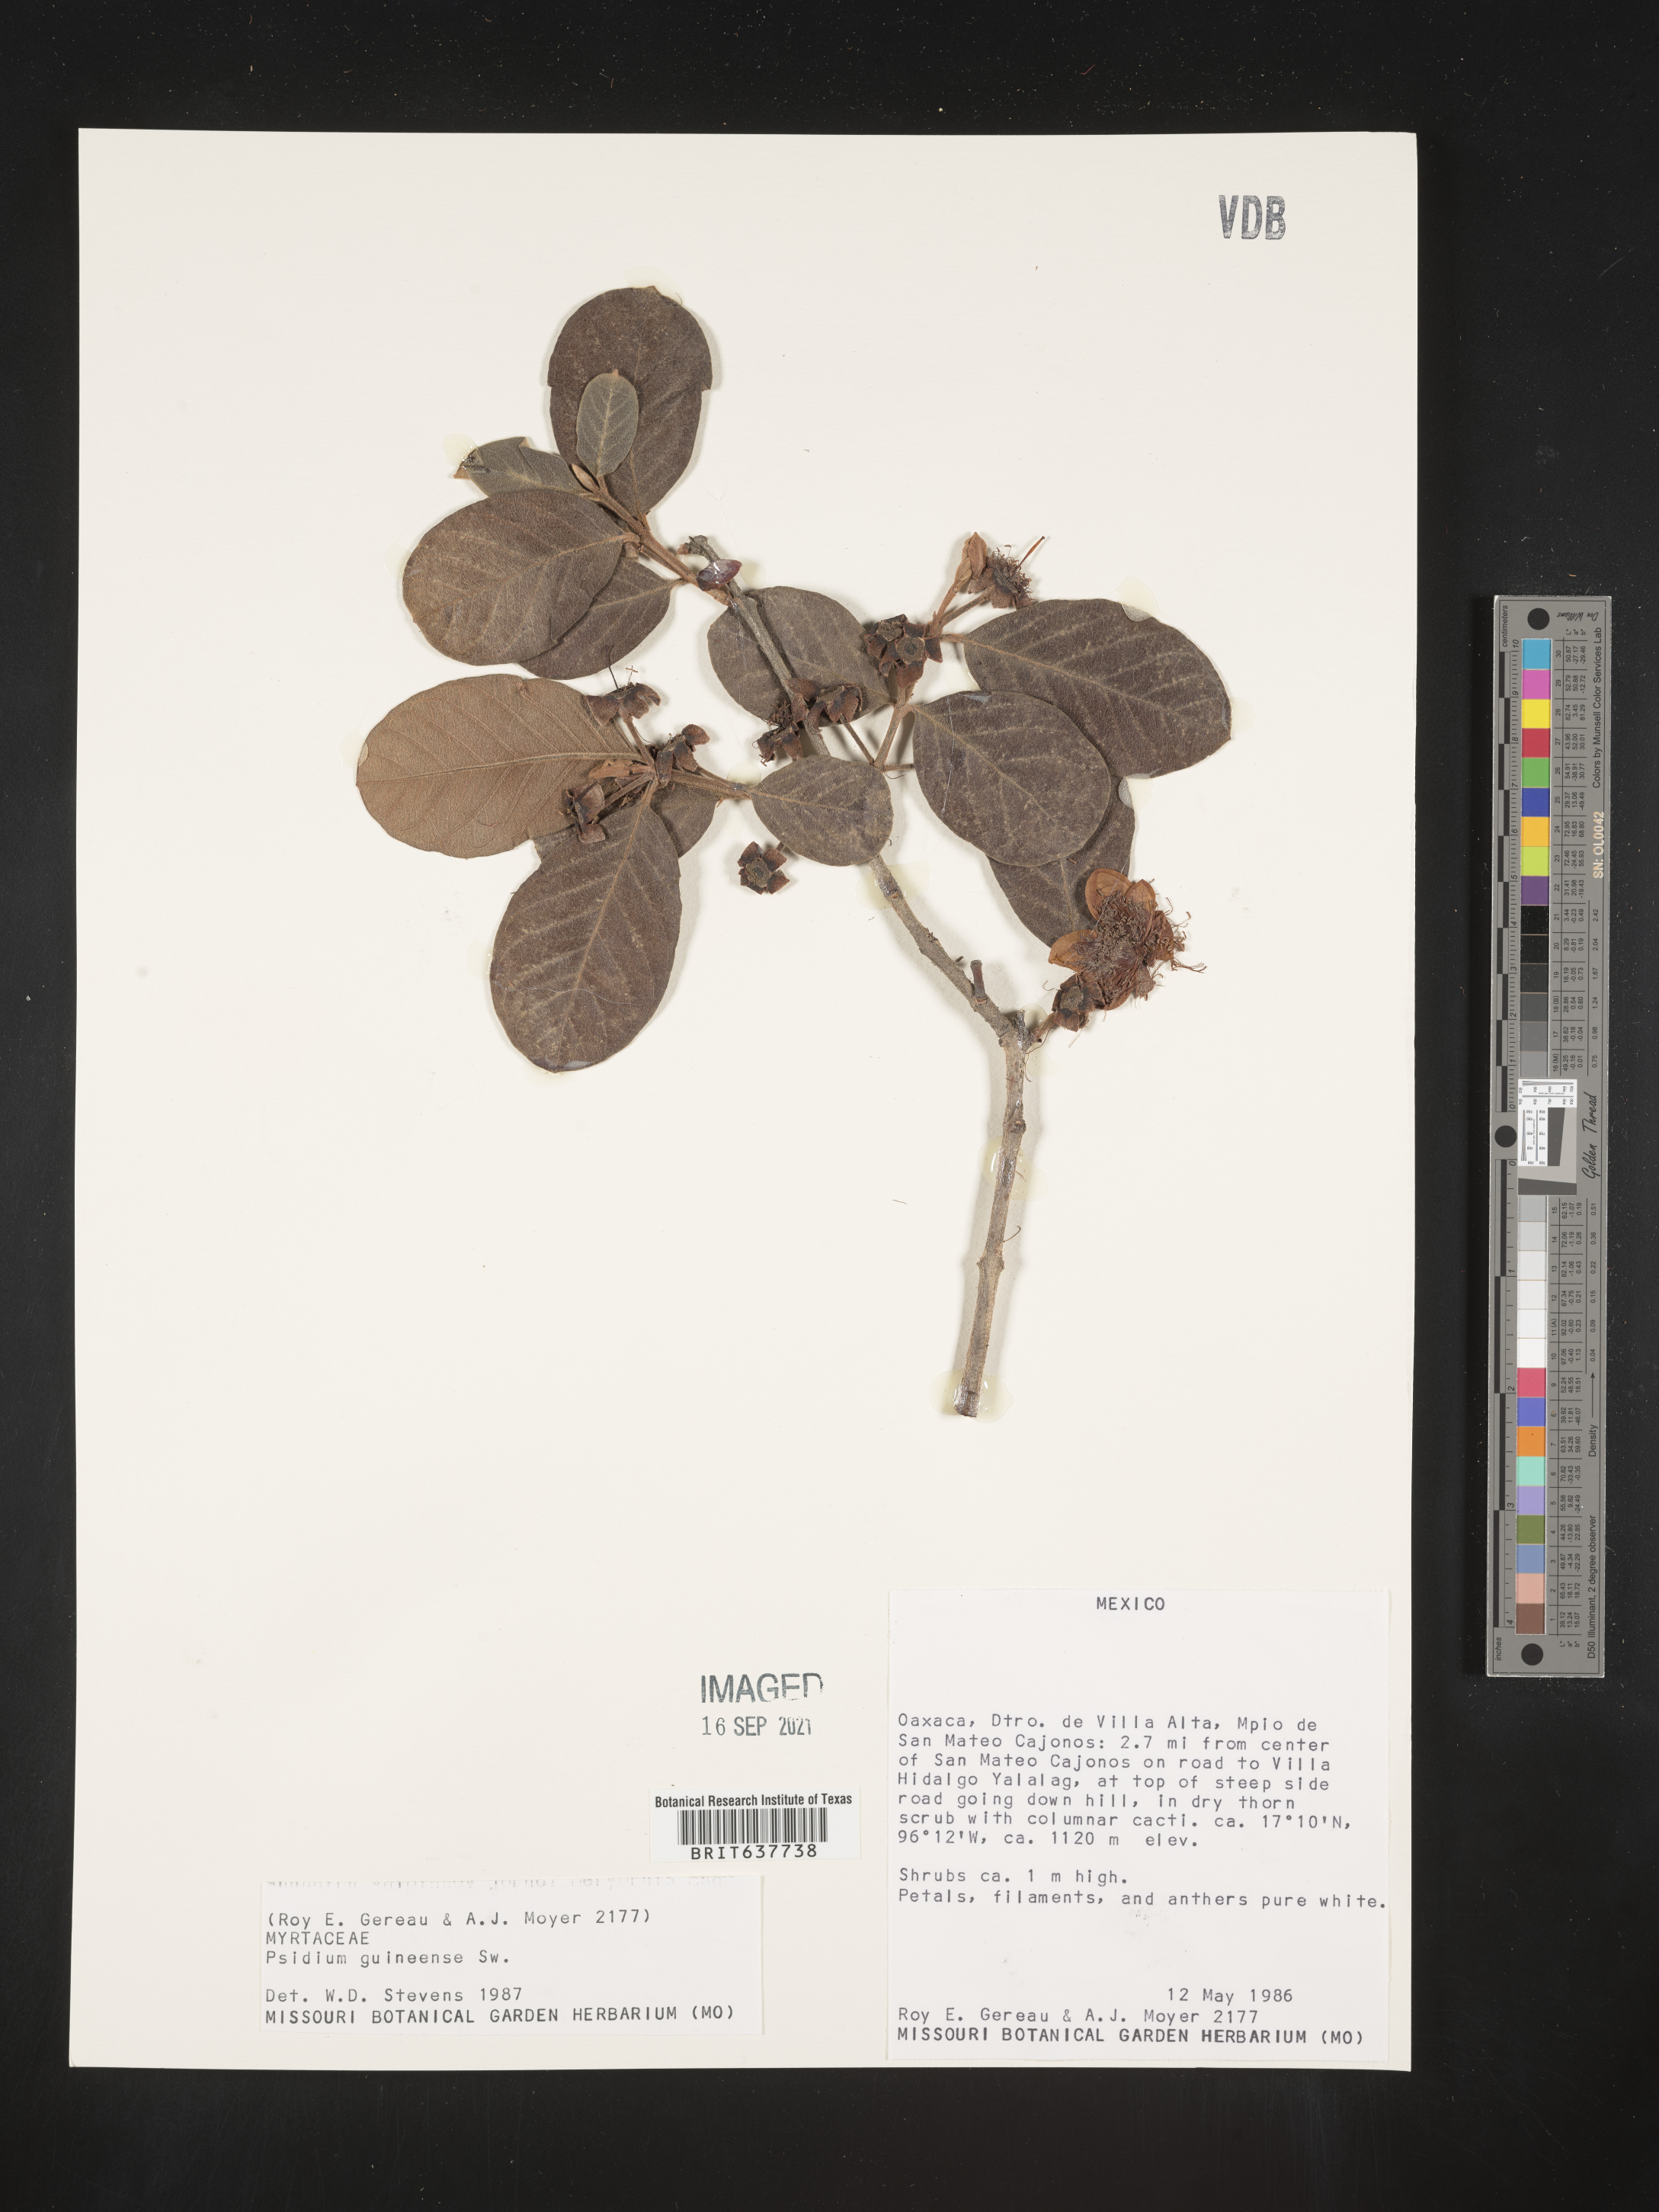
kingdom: Plantae
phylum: Tracheophyta
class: Magnoliopsida
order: Myrtales
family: Myrtaceae
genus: Psidium
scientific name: Psidium
